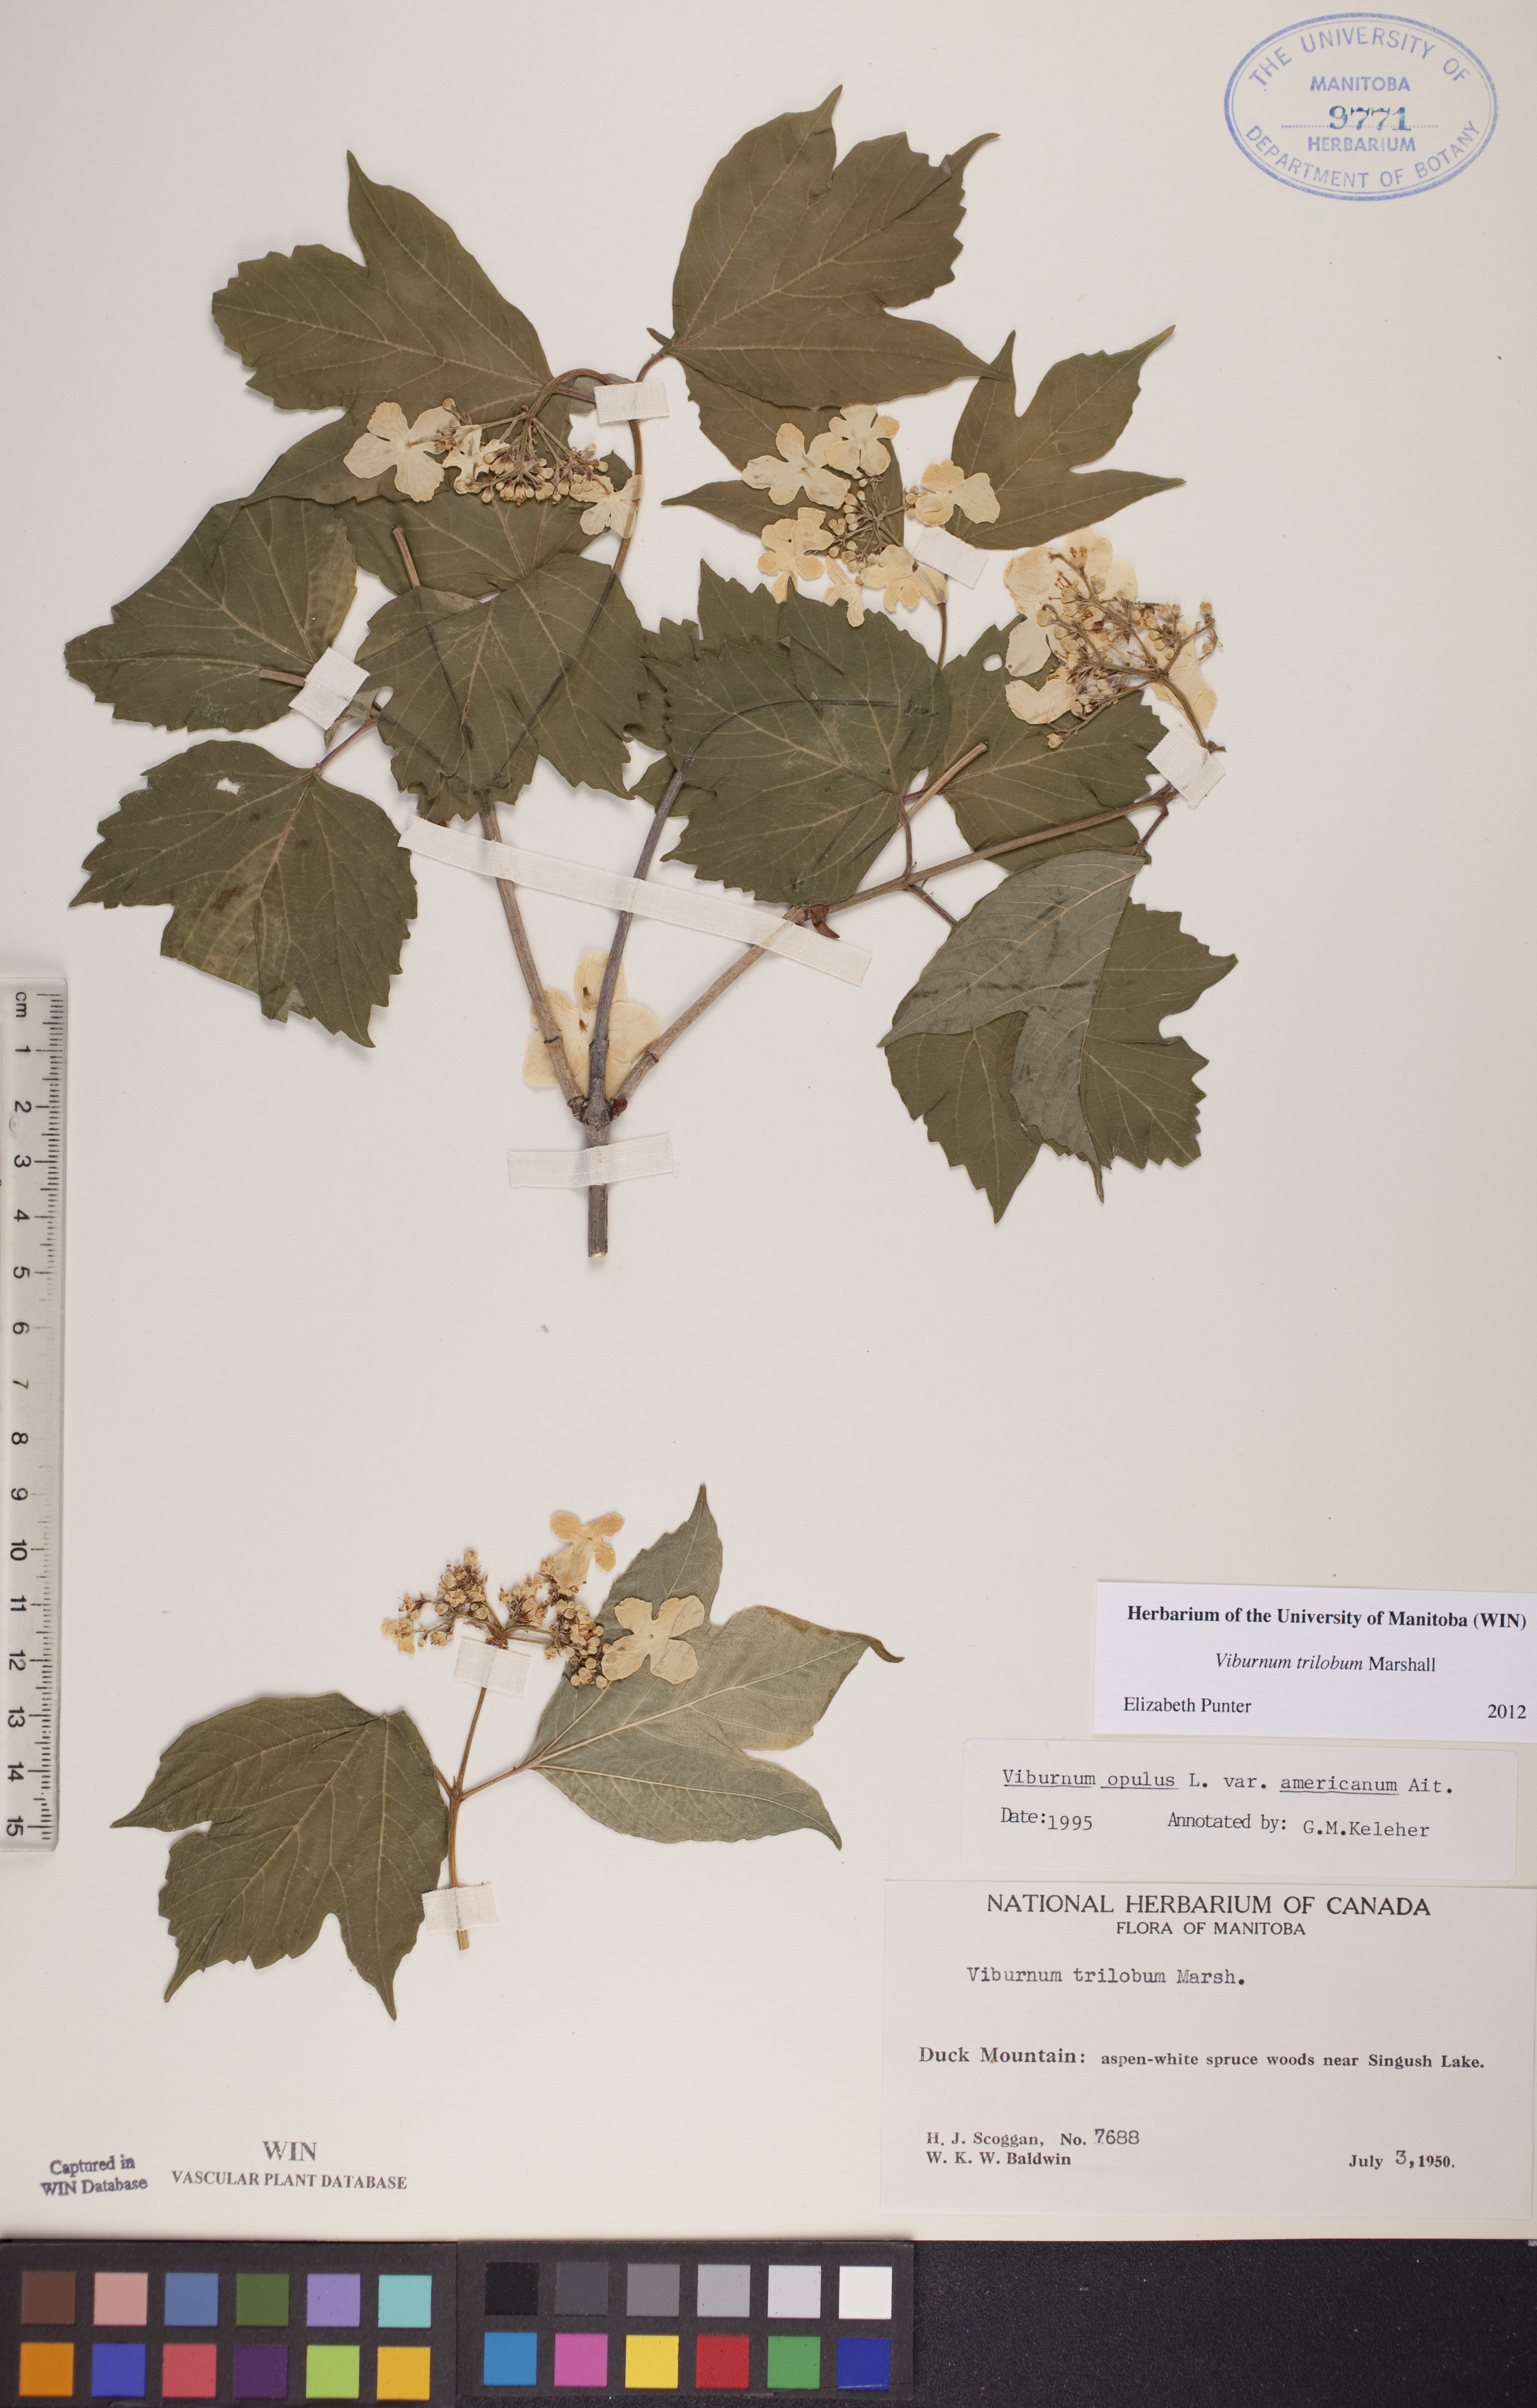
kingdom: Plantae
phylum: Tracheophyta
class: Magnoliopsida
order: Dipsacales
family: Viburnaceae
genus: Viburnum
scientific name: Viburnum trilobum
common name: American cranberrybush
